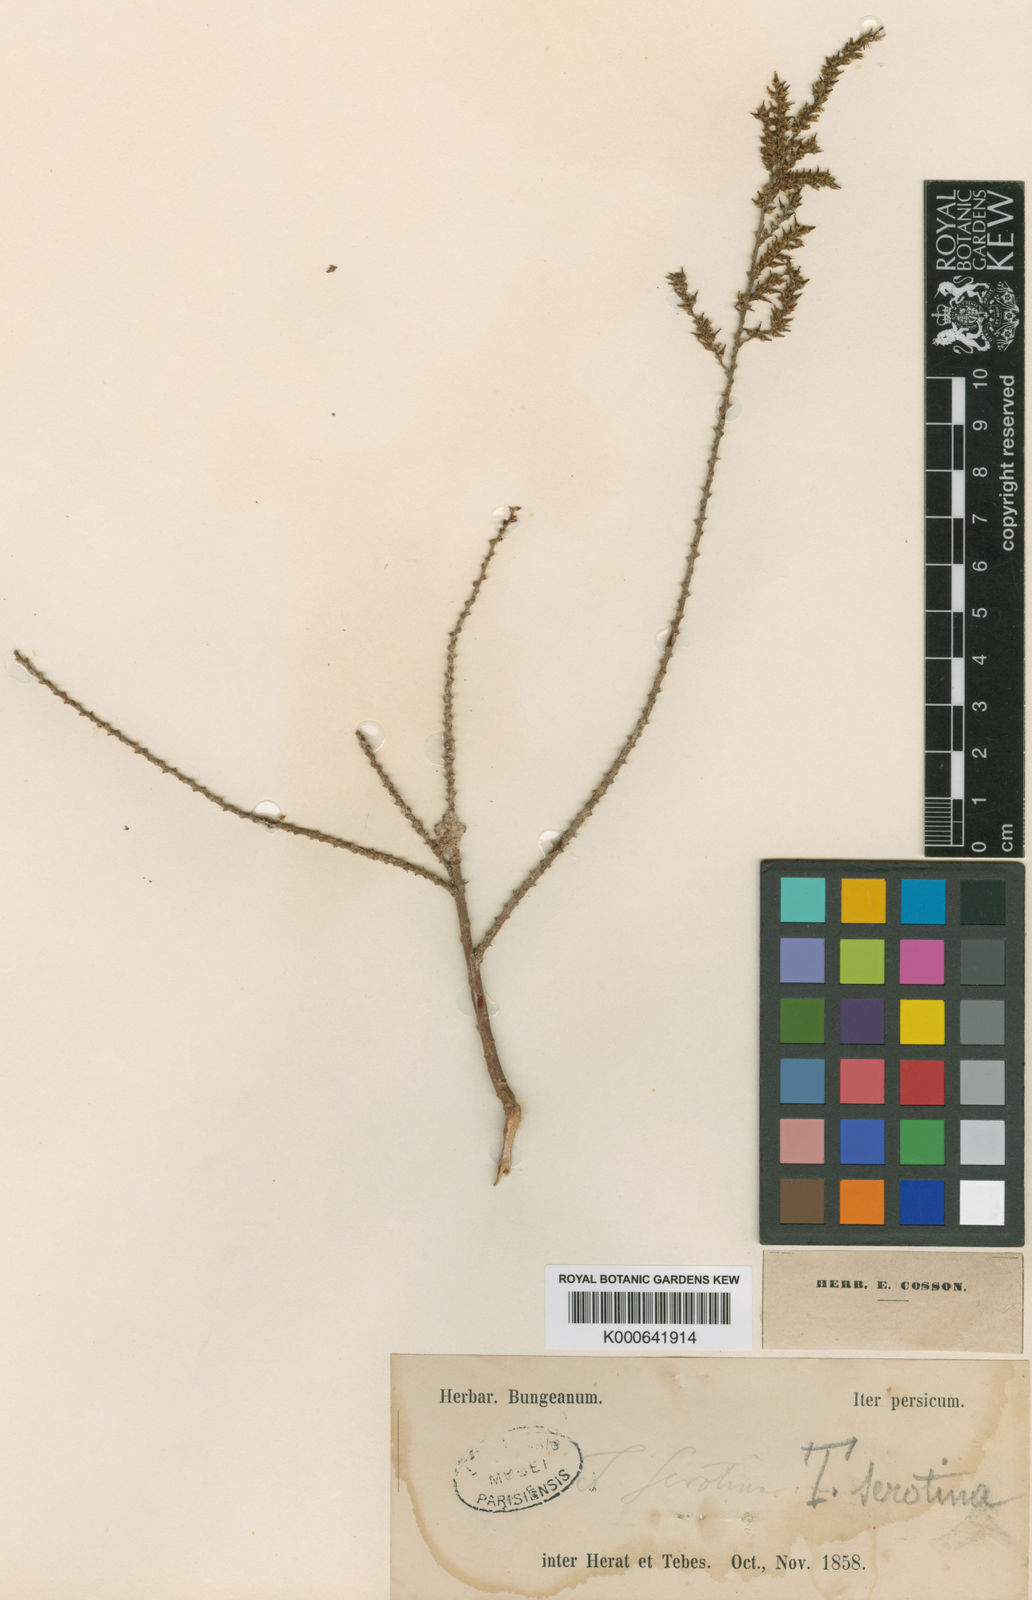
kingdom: Plantae
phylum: Tracheophyta
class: Magnoliopsida
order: Caryophyllales
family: Tamaricaceae
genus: Tamarix
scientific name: Tamarix karelinii
